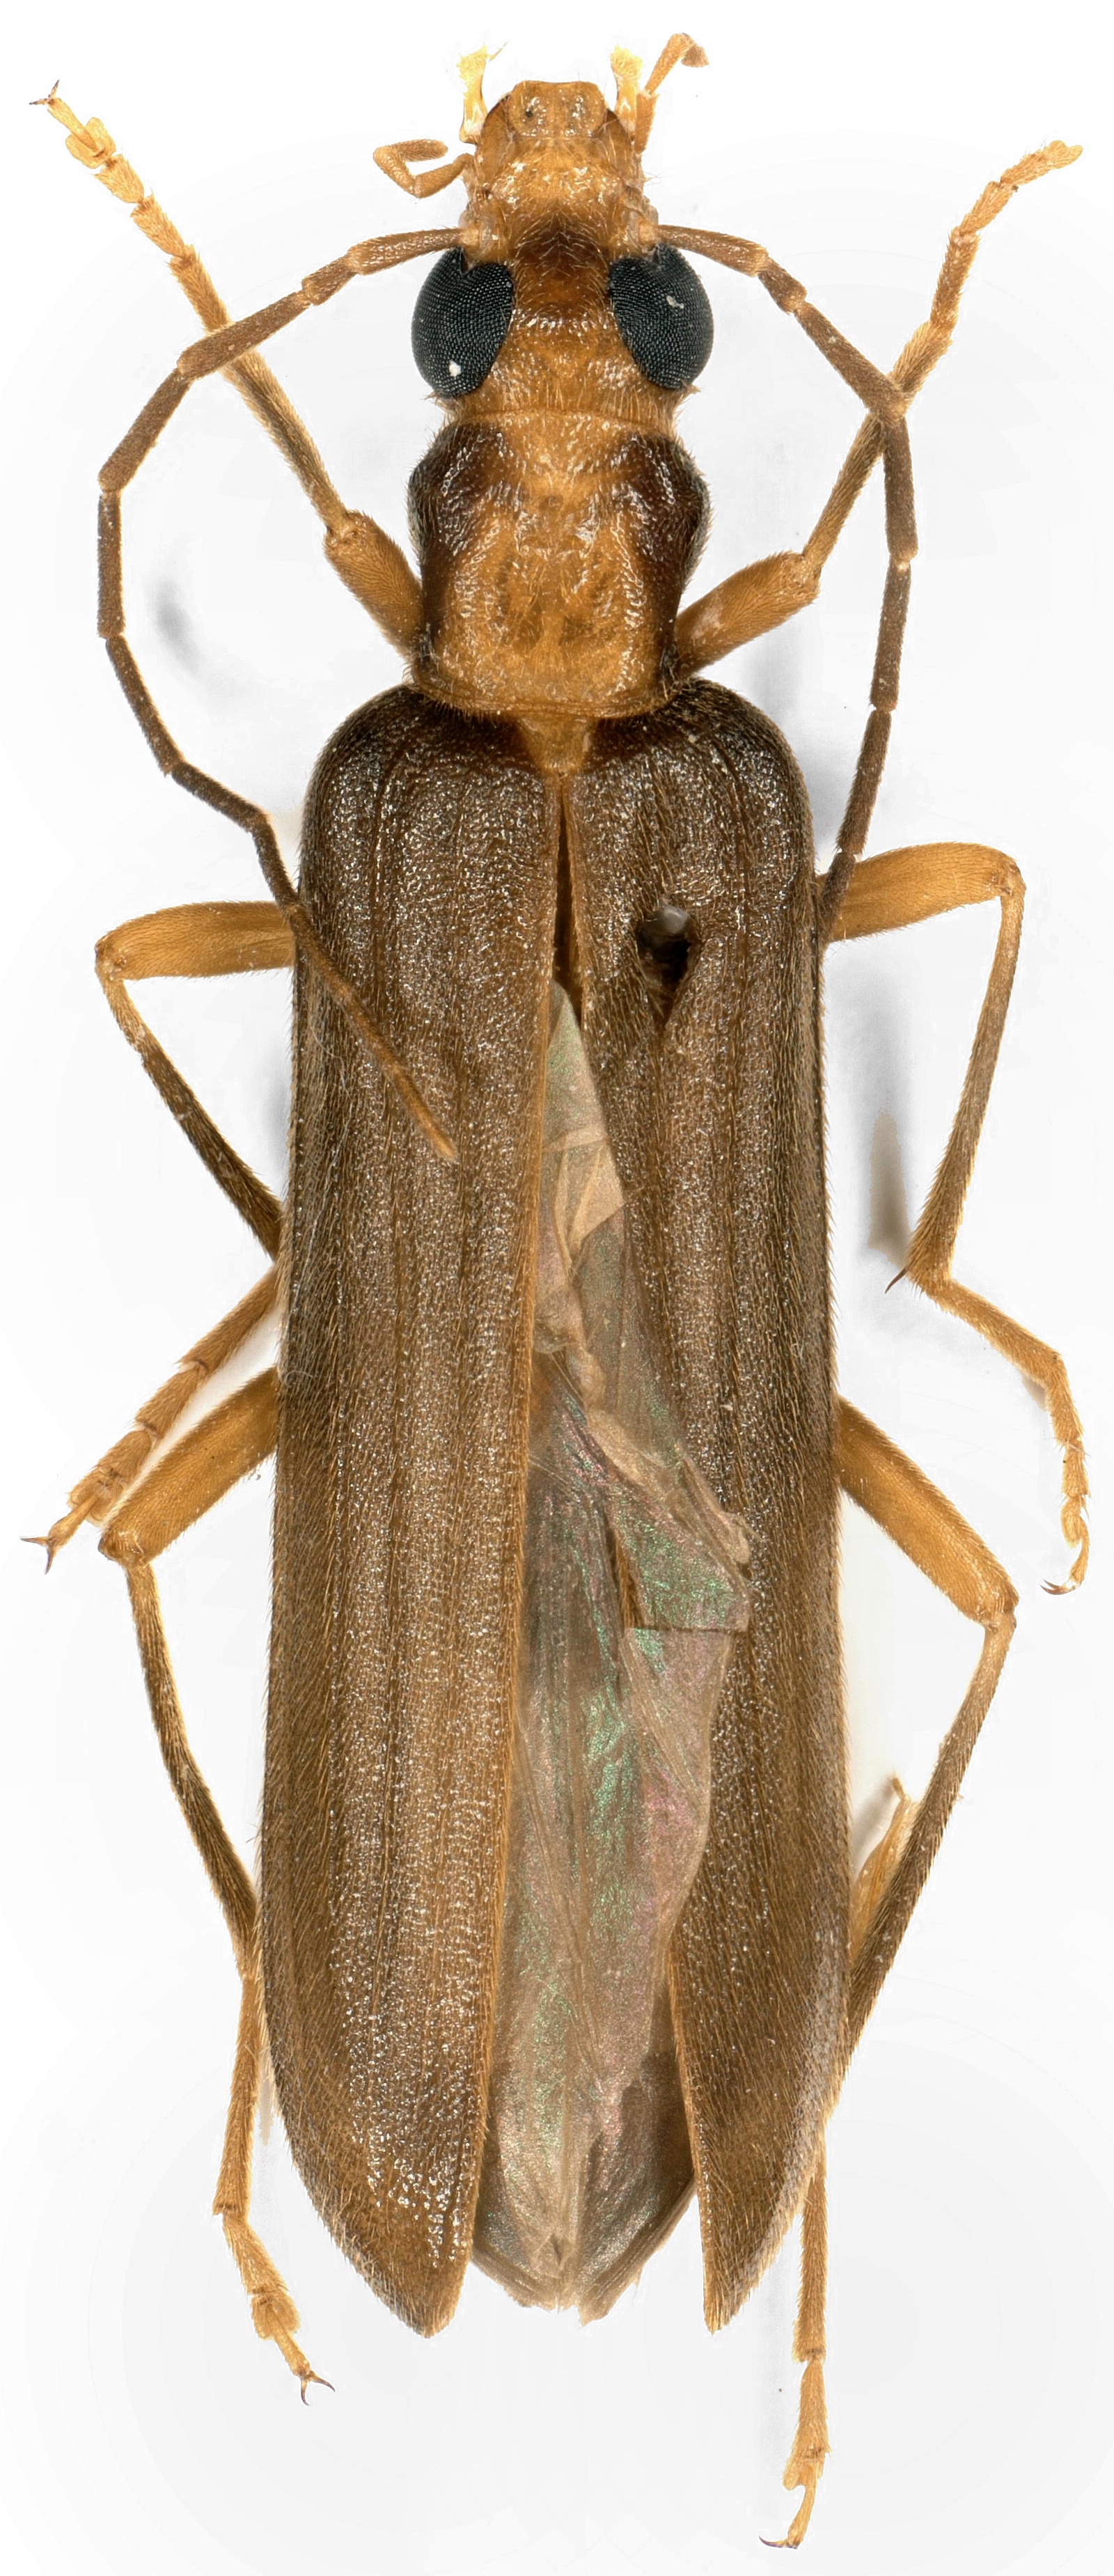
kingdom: Animalia
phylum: Arthropoda
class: Insecta
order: Coleoptera
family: Oedemeridae
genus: Nacerdes
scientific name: Nacerdes carniolica
